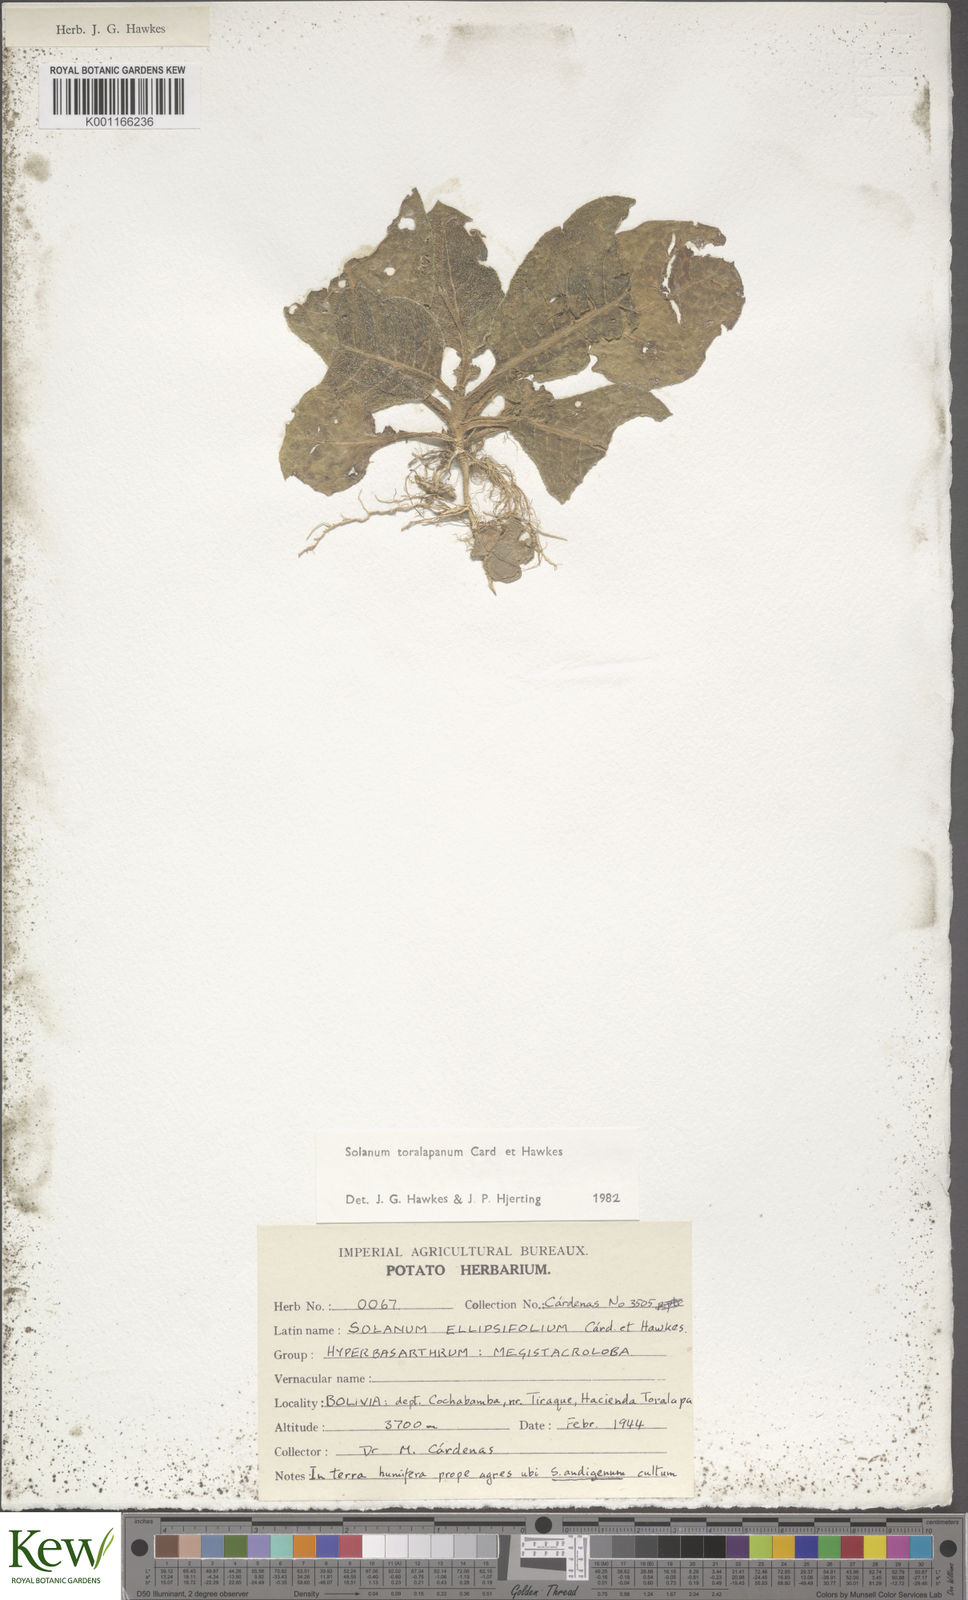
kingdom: Plantae
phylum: Tracheophyta
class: Magnoliopsida
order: Solanales
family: Solanaceae
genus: Solanum
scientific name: Solanum
